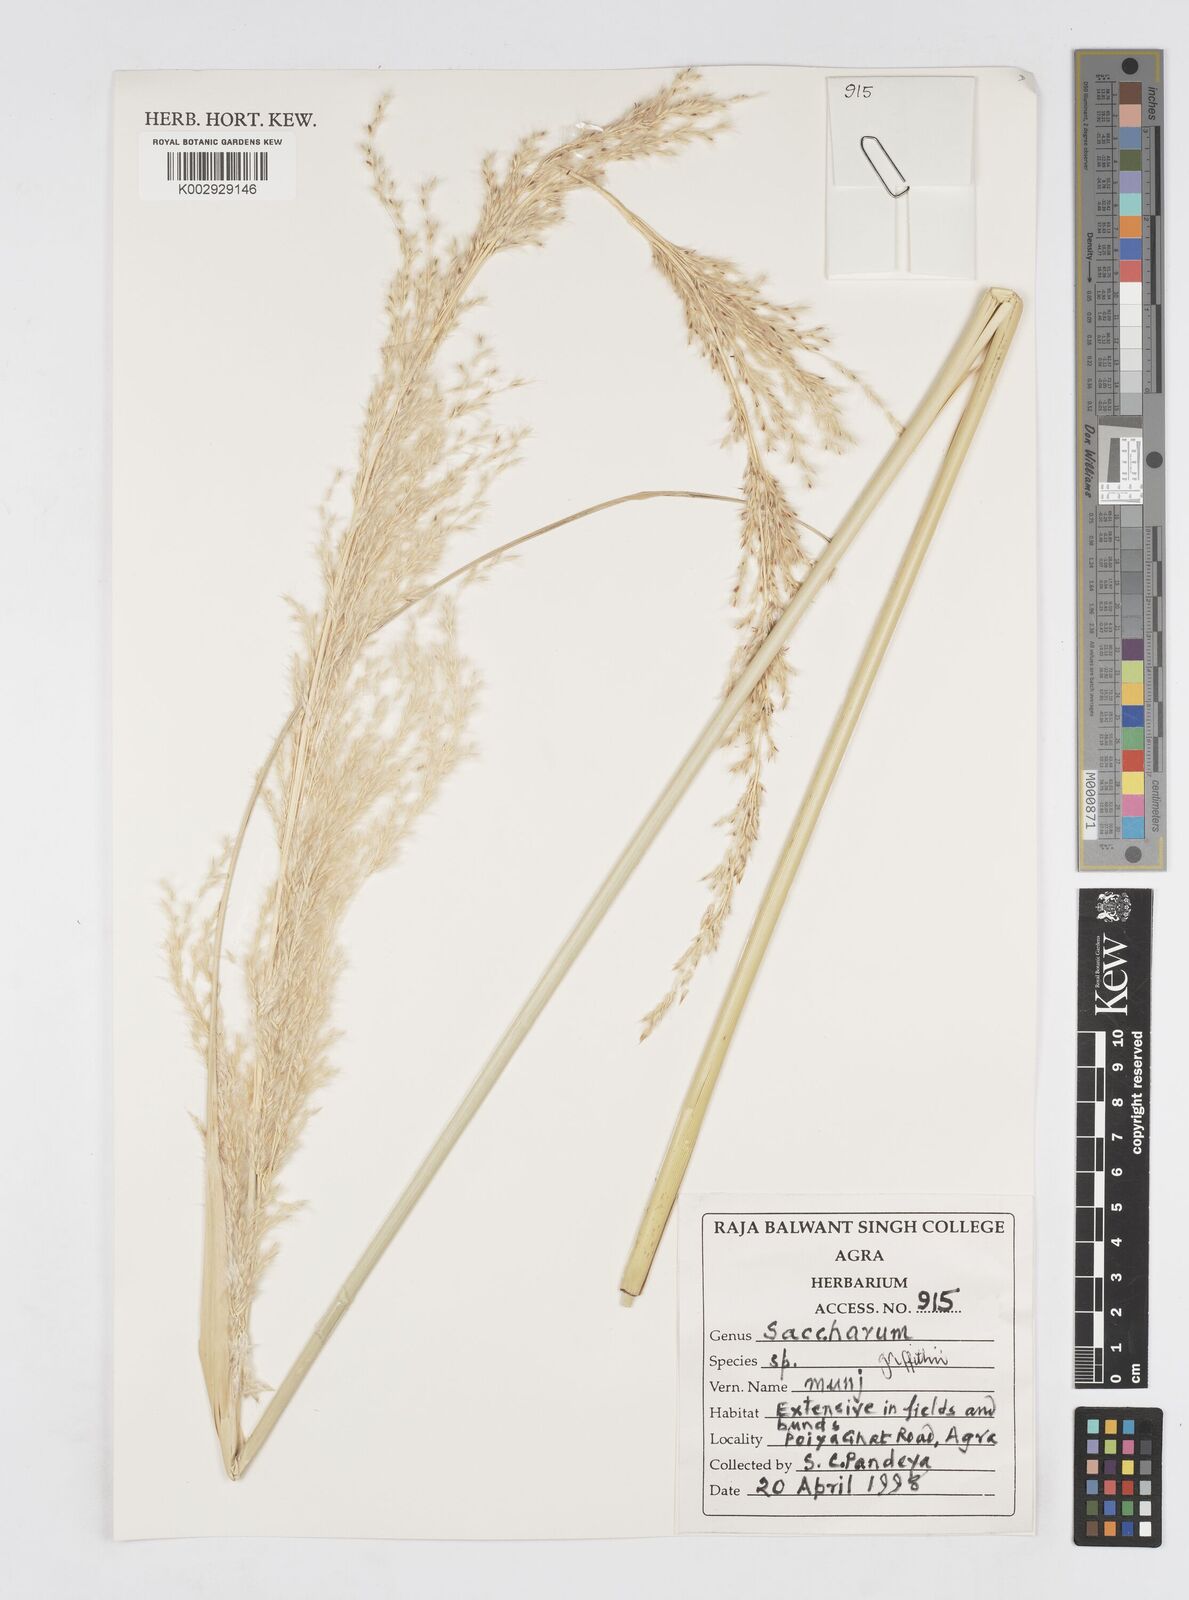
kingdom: Plantae
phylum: Tracheophyta
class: Liliopsida
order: Poales
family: Poaceae
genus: Saccharum
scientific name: Saccharum griffithii
